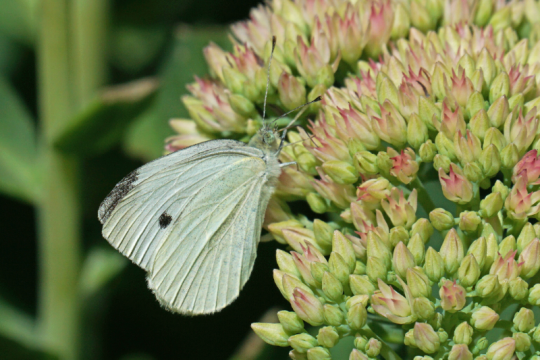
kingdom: Animalia
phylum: Arthropoda
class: Insecta
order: Lepidoptera
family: Pieridae
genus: Pieris
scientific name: Pieris rapae
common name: Cabbage White
